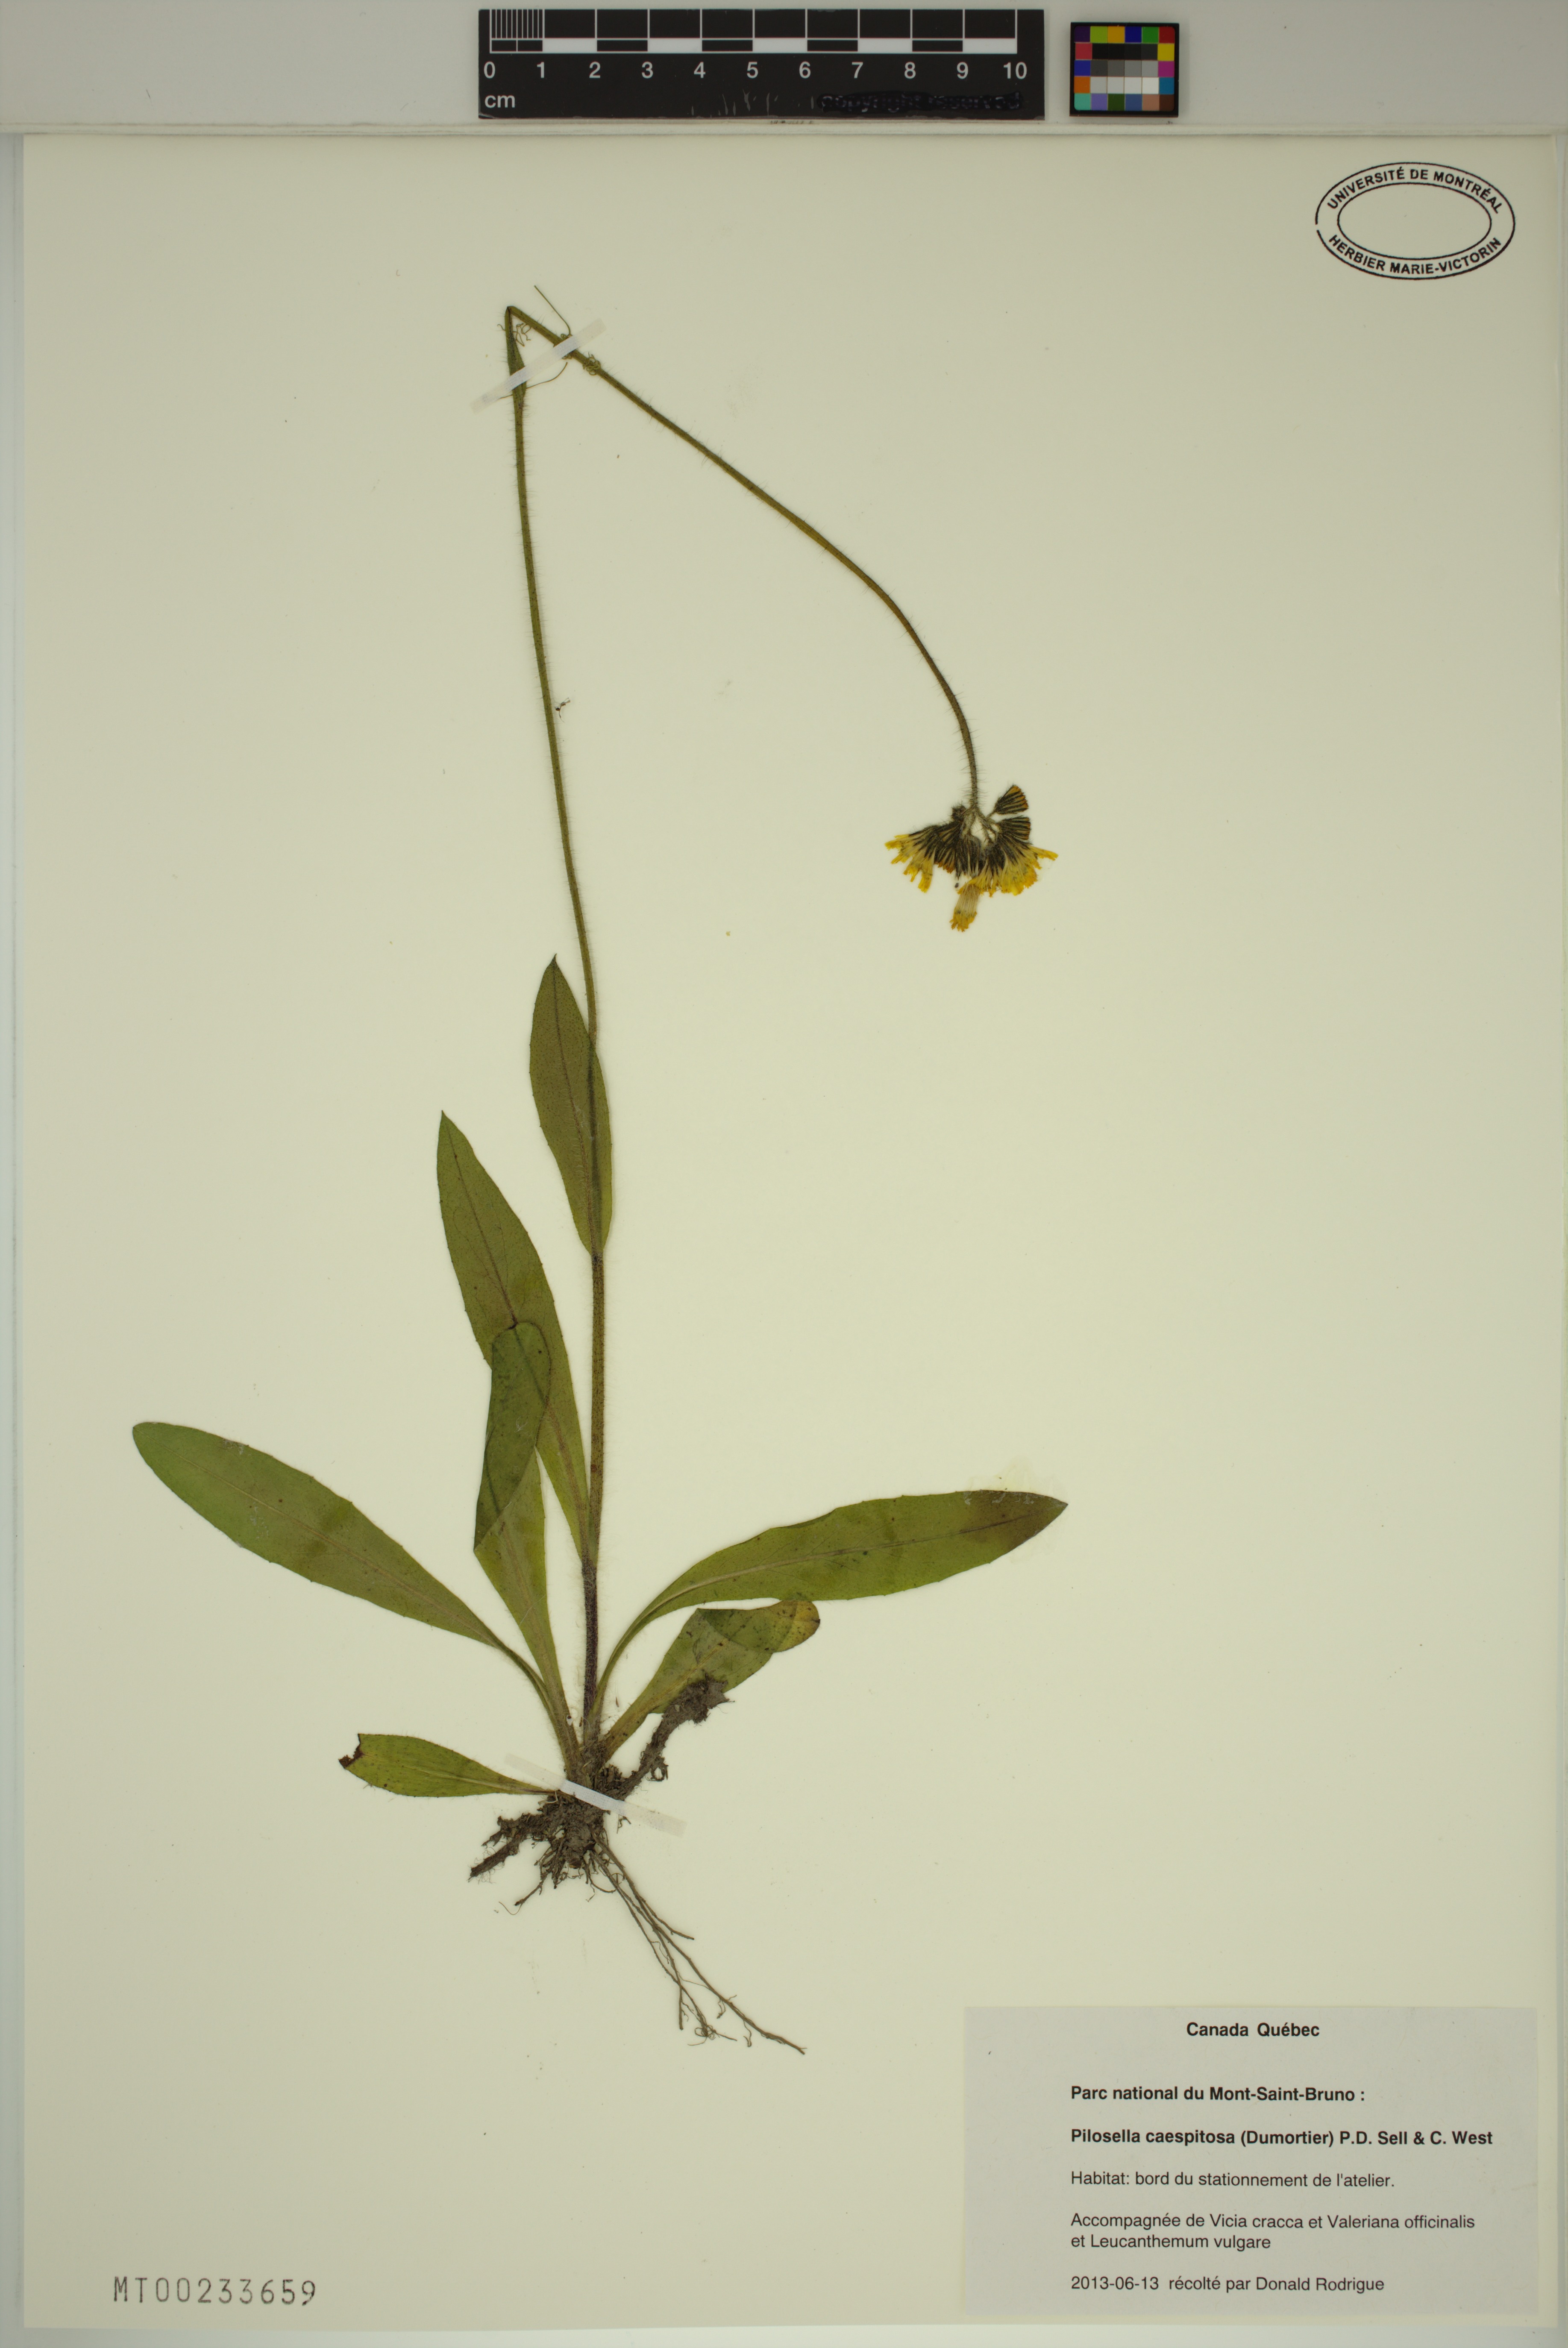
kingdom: Plantae
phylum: Tracheophyta
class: Magnoliopsida
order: Asterales
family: Asteraceae
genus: Pilosella
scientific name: Pilosella caespitosa
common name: Yellow fox-and-cubs
